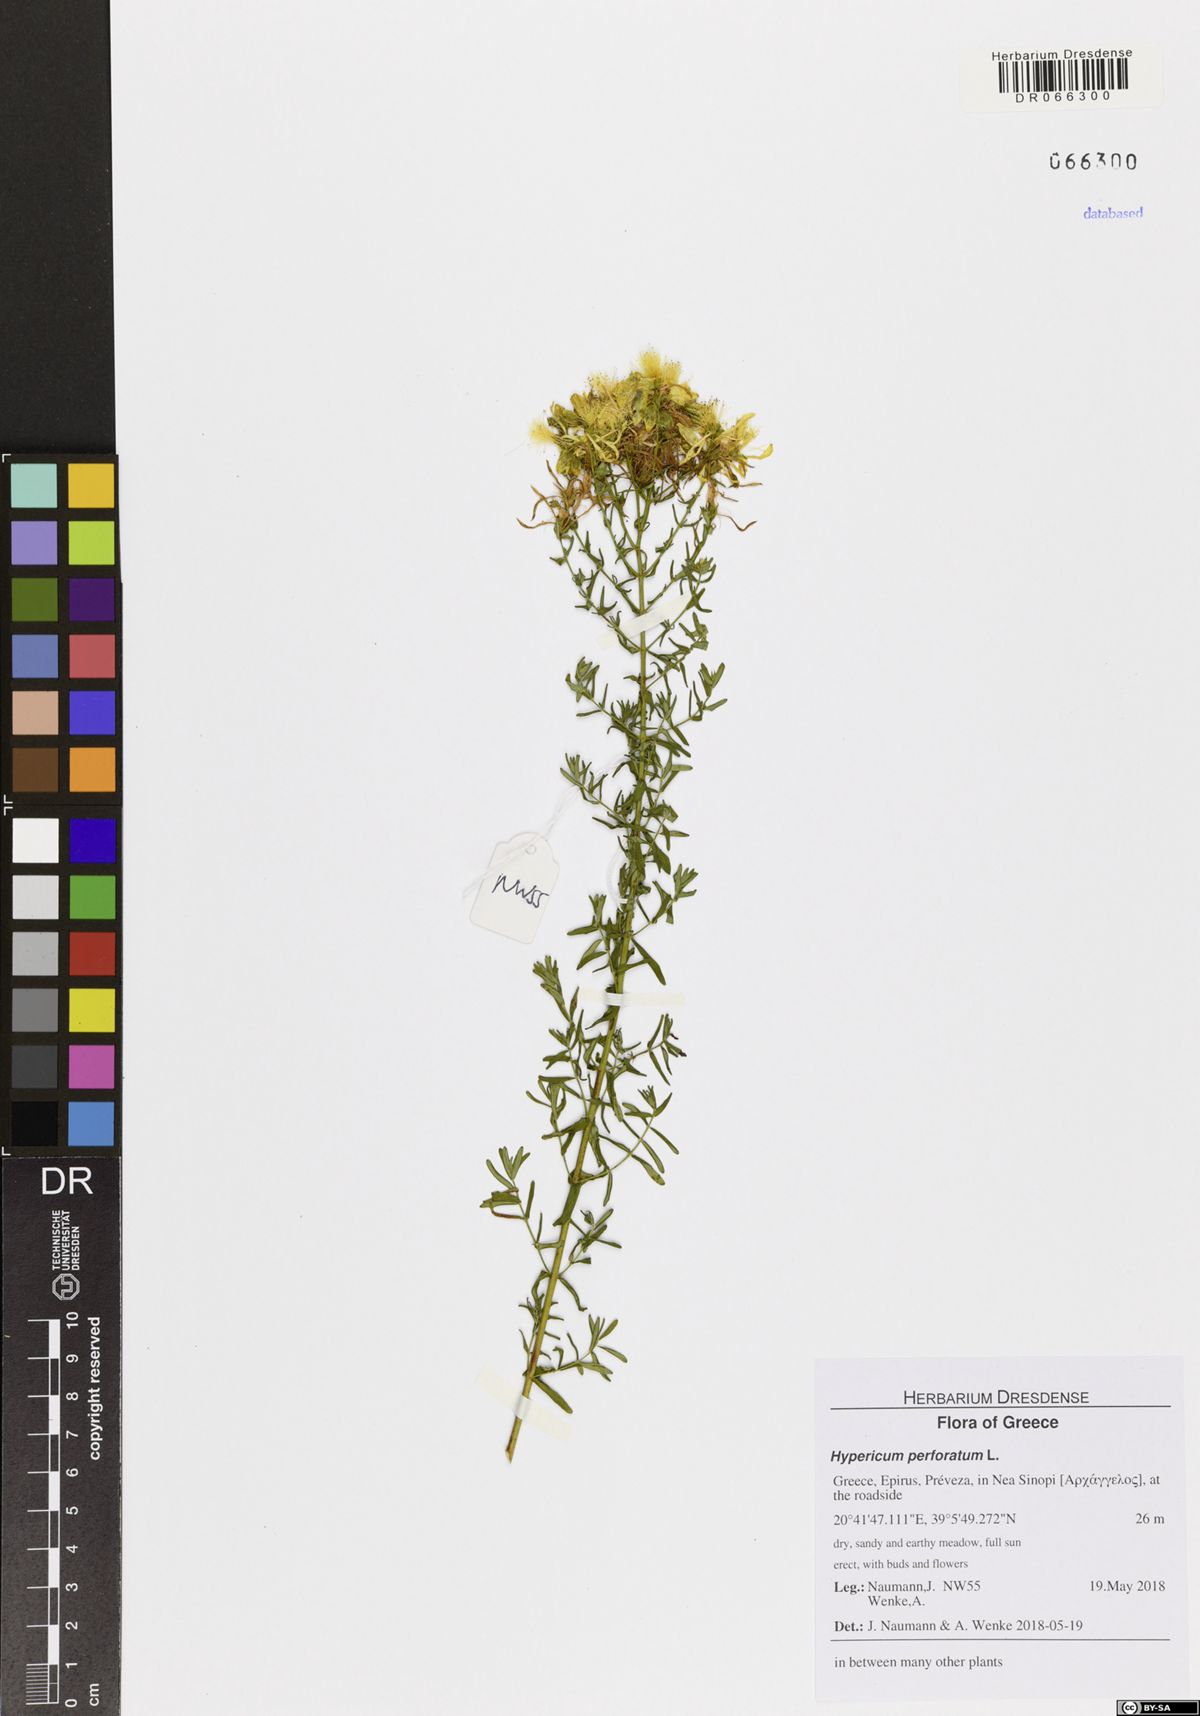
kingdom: Plantae
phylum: Tracheophyta
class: Magnoliopsida
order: Malpighiales
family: Hypericaceae
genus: Hypericum
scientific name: Hypericum perforatum
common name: Common st. johnswort
